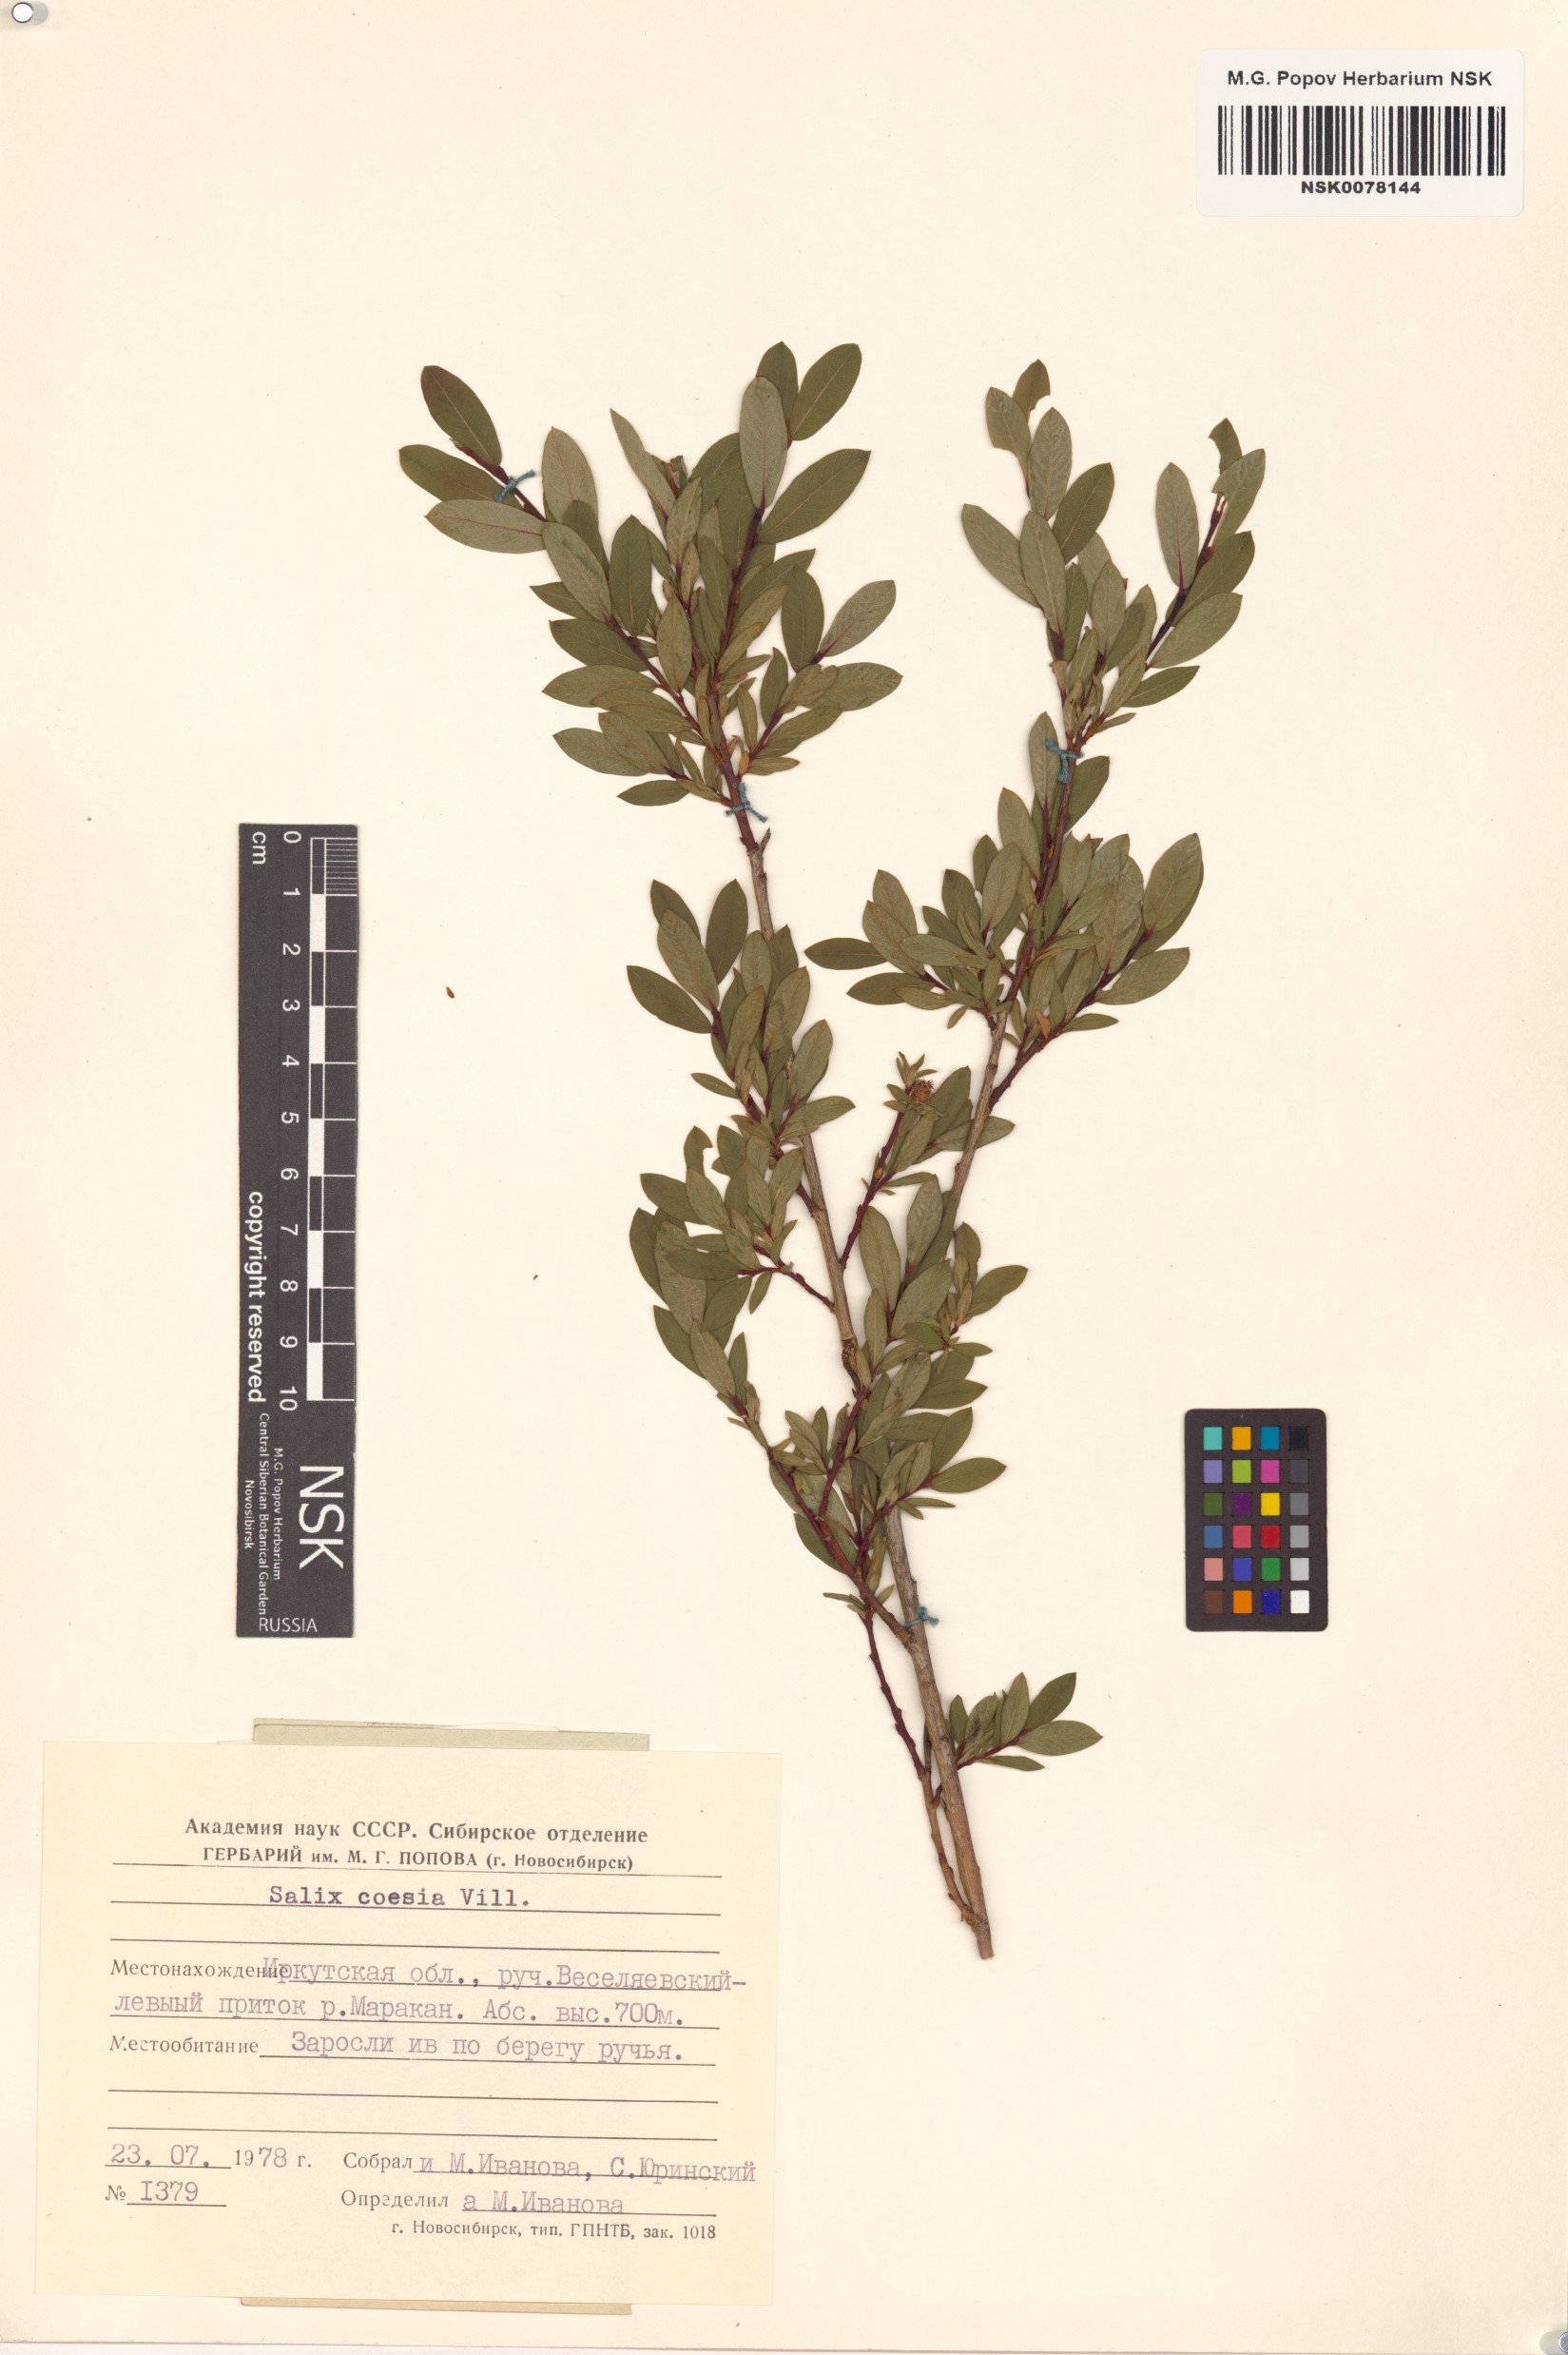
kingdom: Plantae
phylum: Tracheophyta
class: Magnoliopsida
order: Malpighiales
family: Salicaceae
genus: Salix
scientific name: Salix caesia
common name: Blue willow
